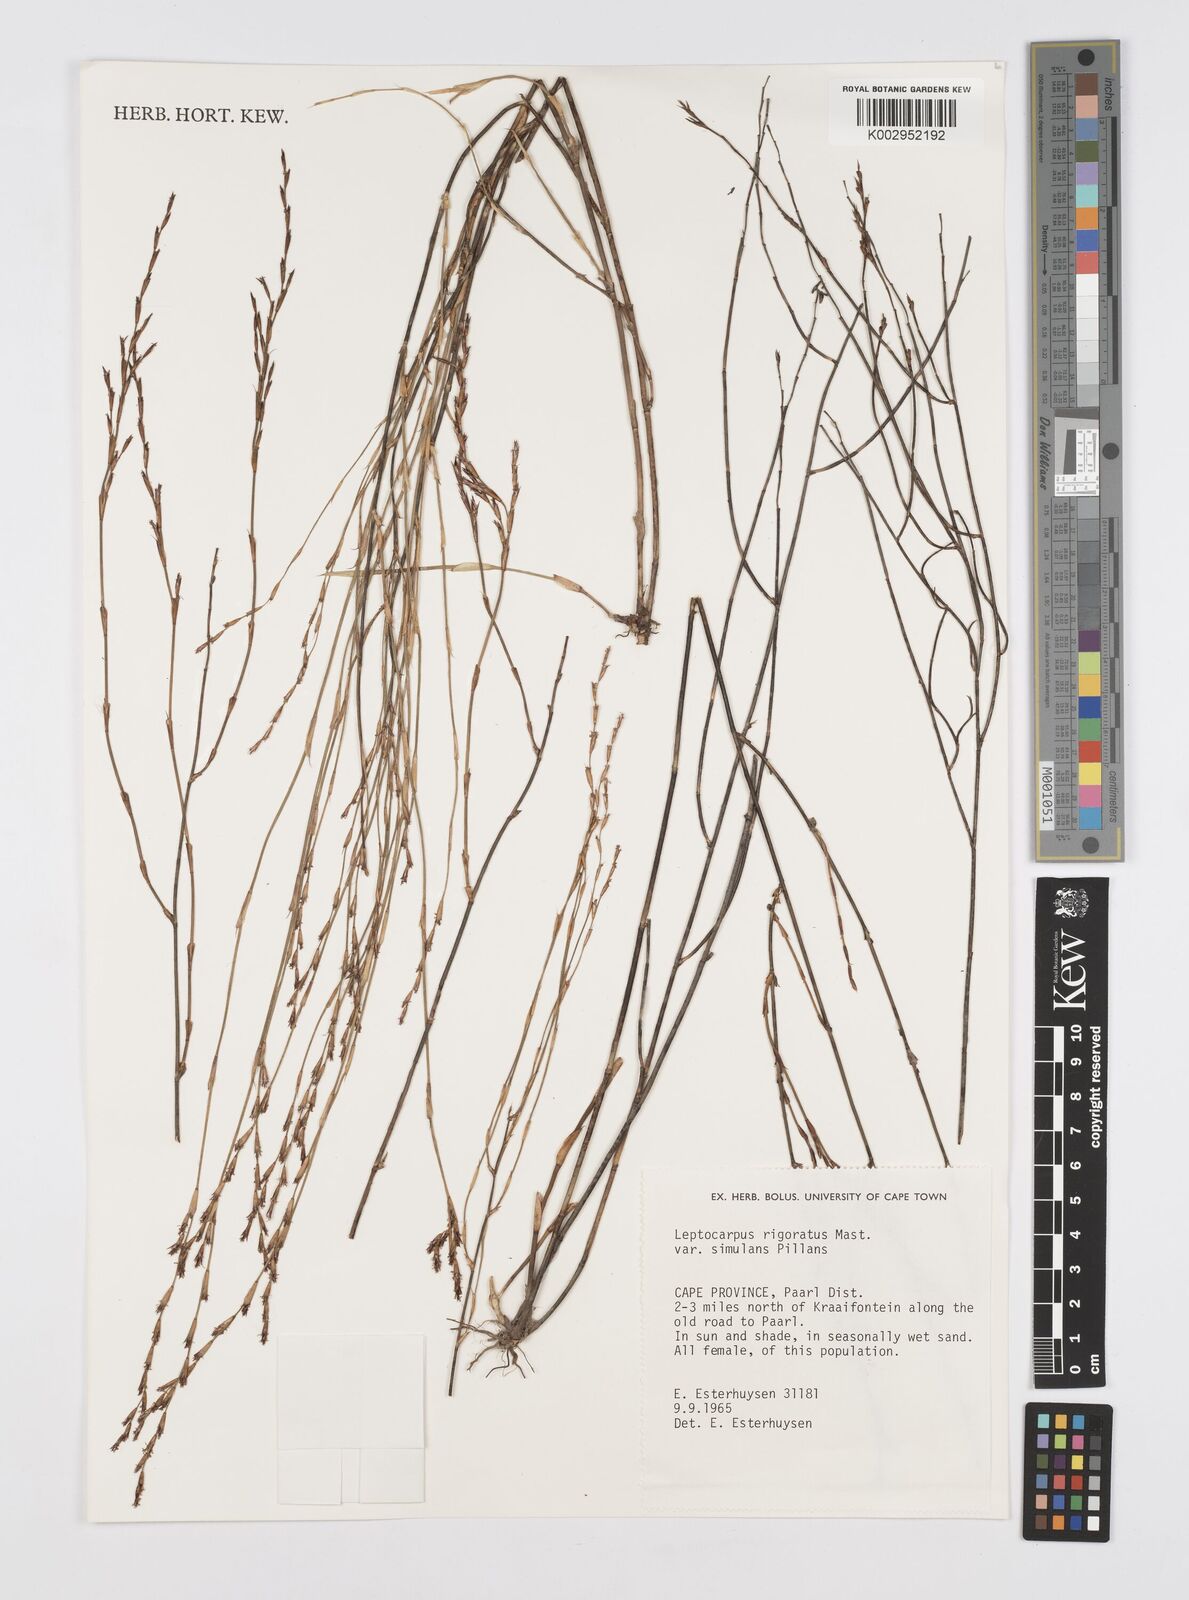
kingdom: Plantae
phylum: Tracheophyta
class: Liliopsida
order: Poales
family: Restionaceae
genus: Restio
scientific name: Restio rigoratus
